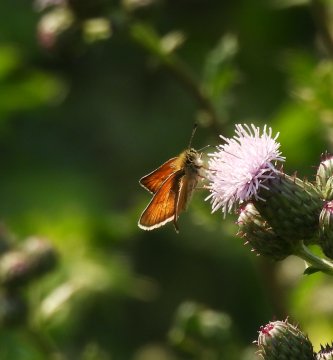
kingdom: Animalia
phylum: Arthropoda
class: Insecta
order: Lepidoptera
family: Hesperiidae
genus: Thymelicus
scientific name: Thymelicus lineola
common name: European Skipper
